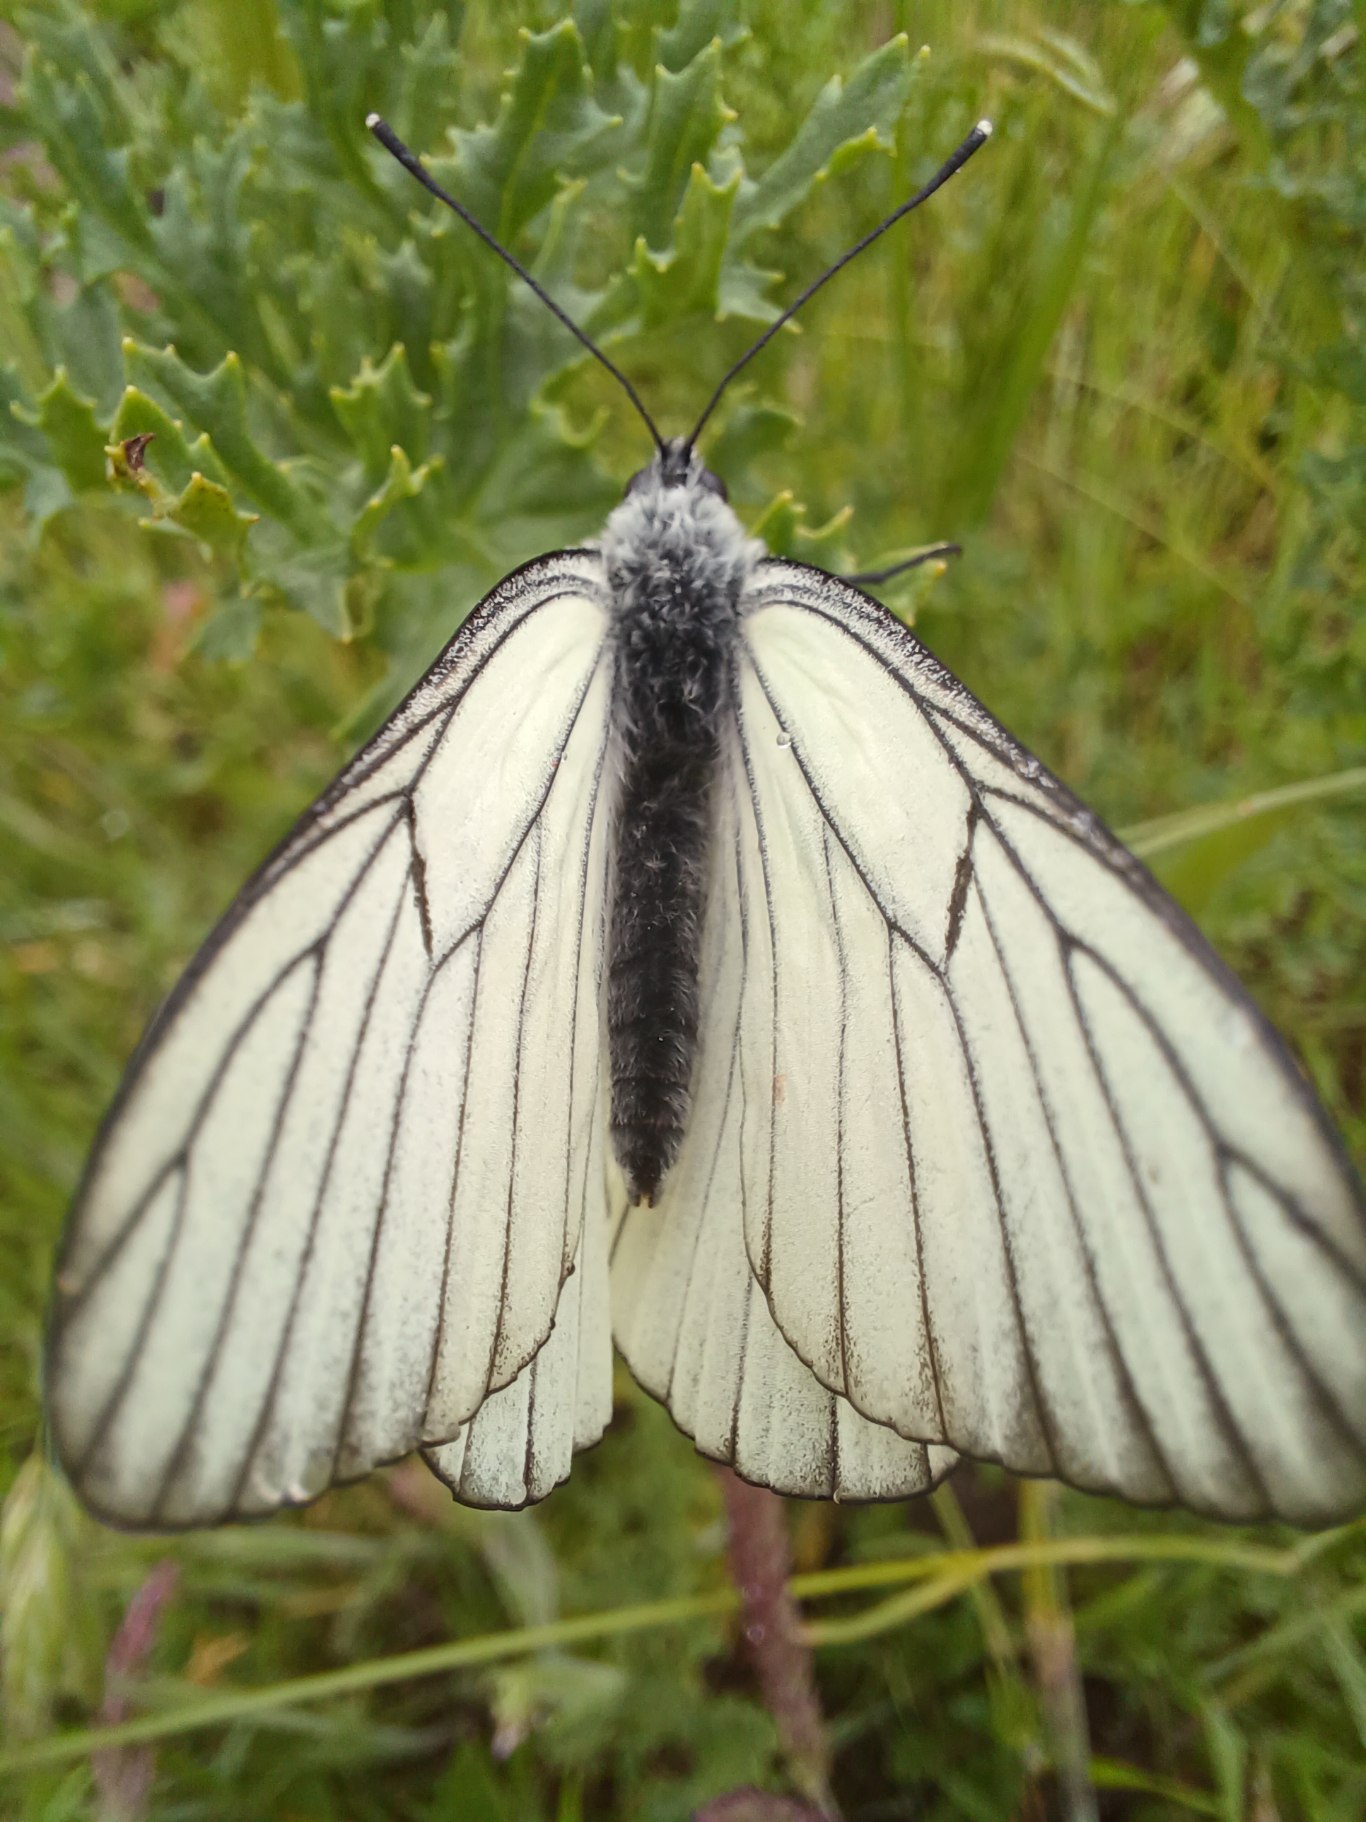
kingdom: Animalia
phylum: Arthropoda
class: Insecta
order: Lepidoptera
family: Pieridae
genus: Aporia
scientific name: Aporia crataegi
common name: Sortåret hvidvinge
